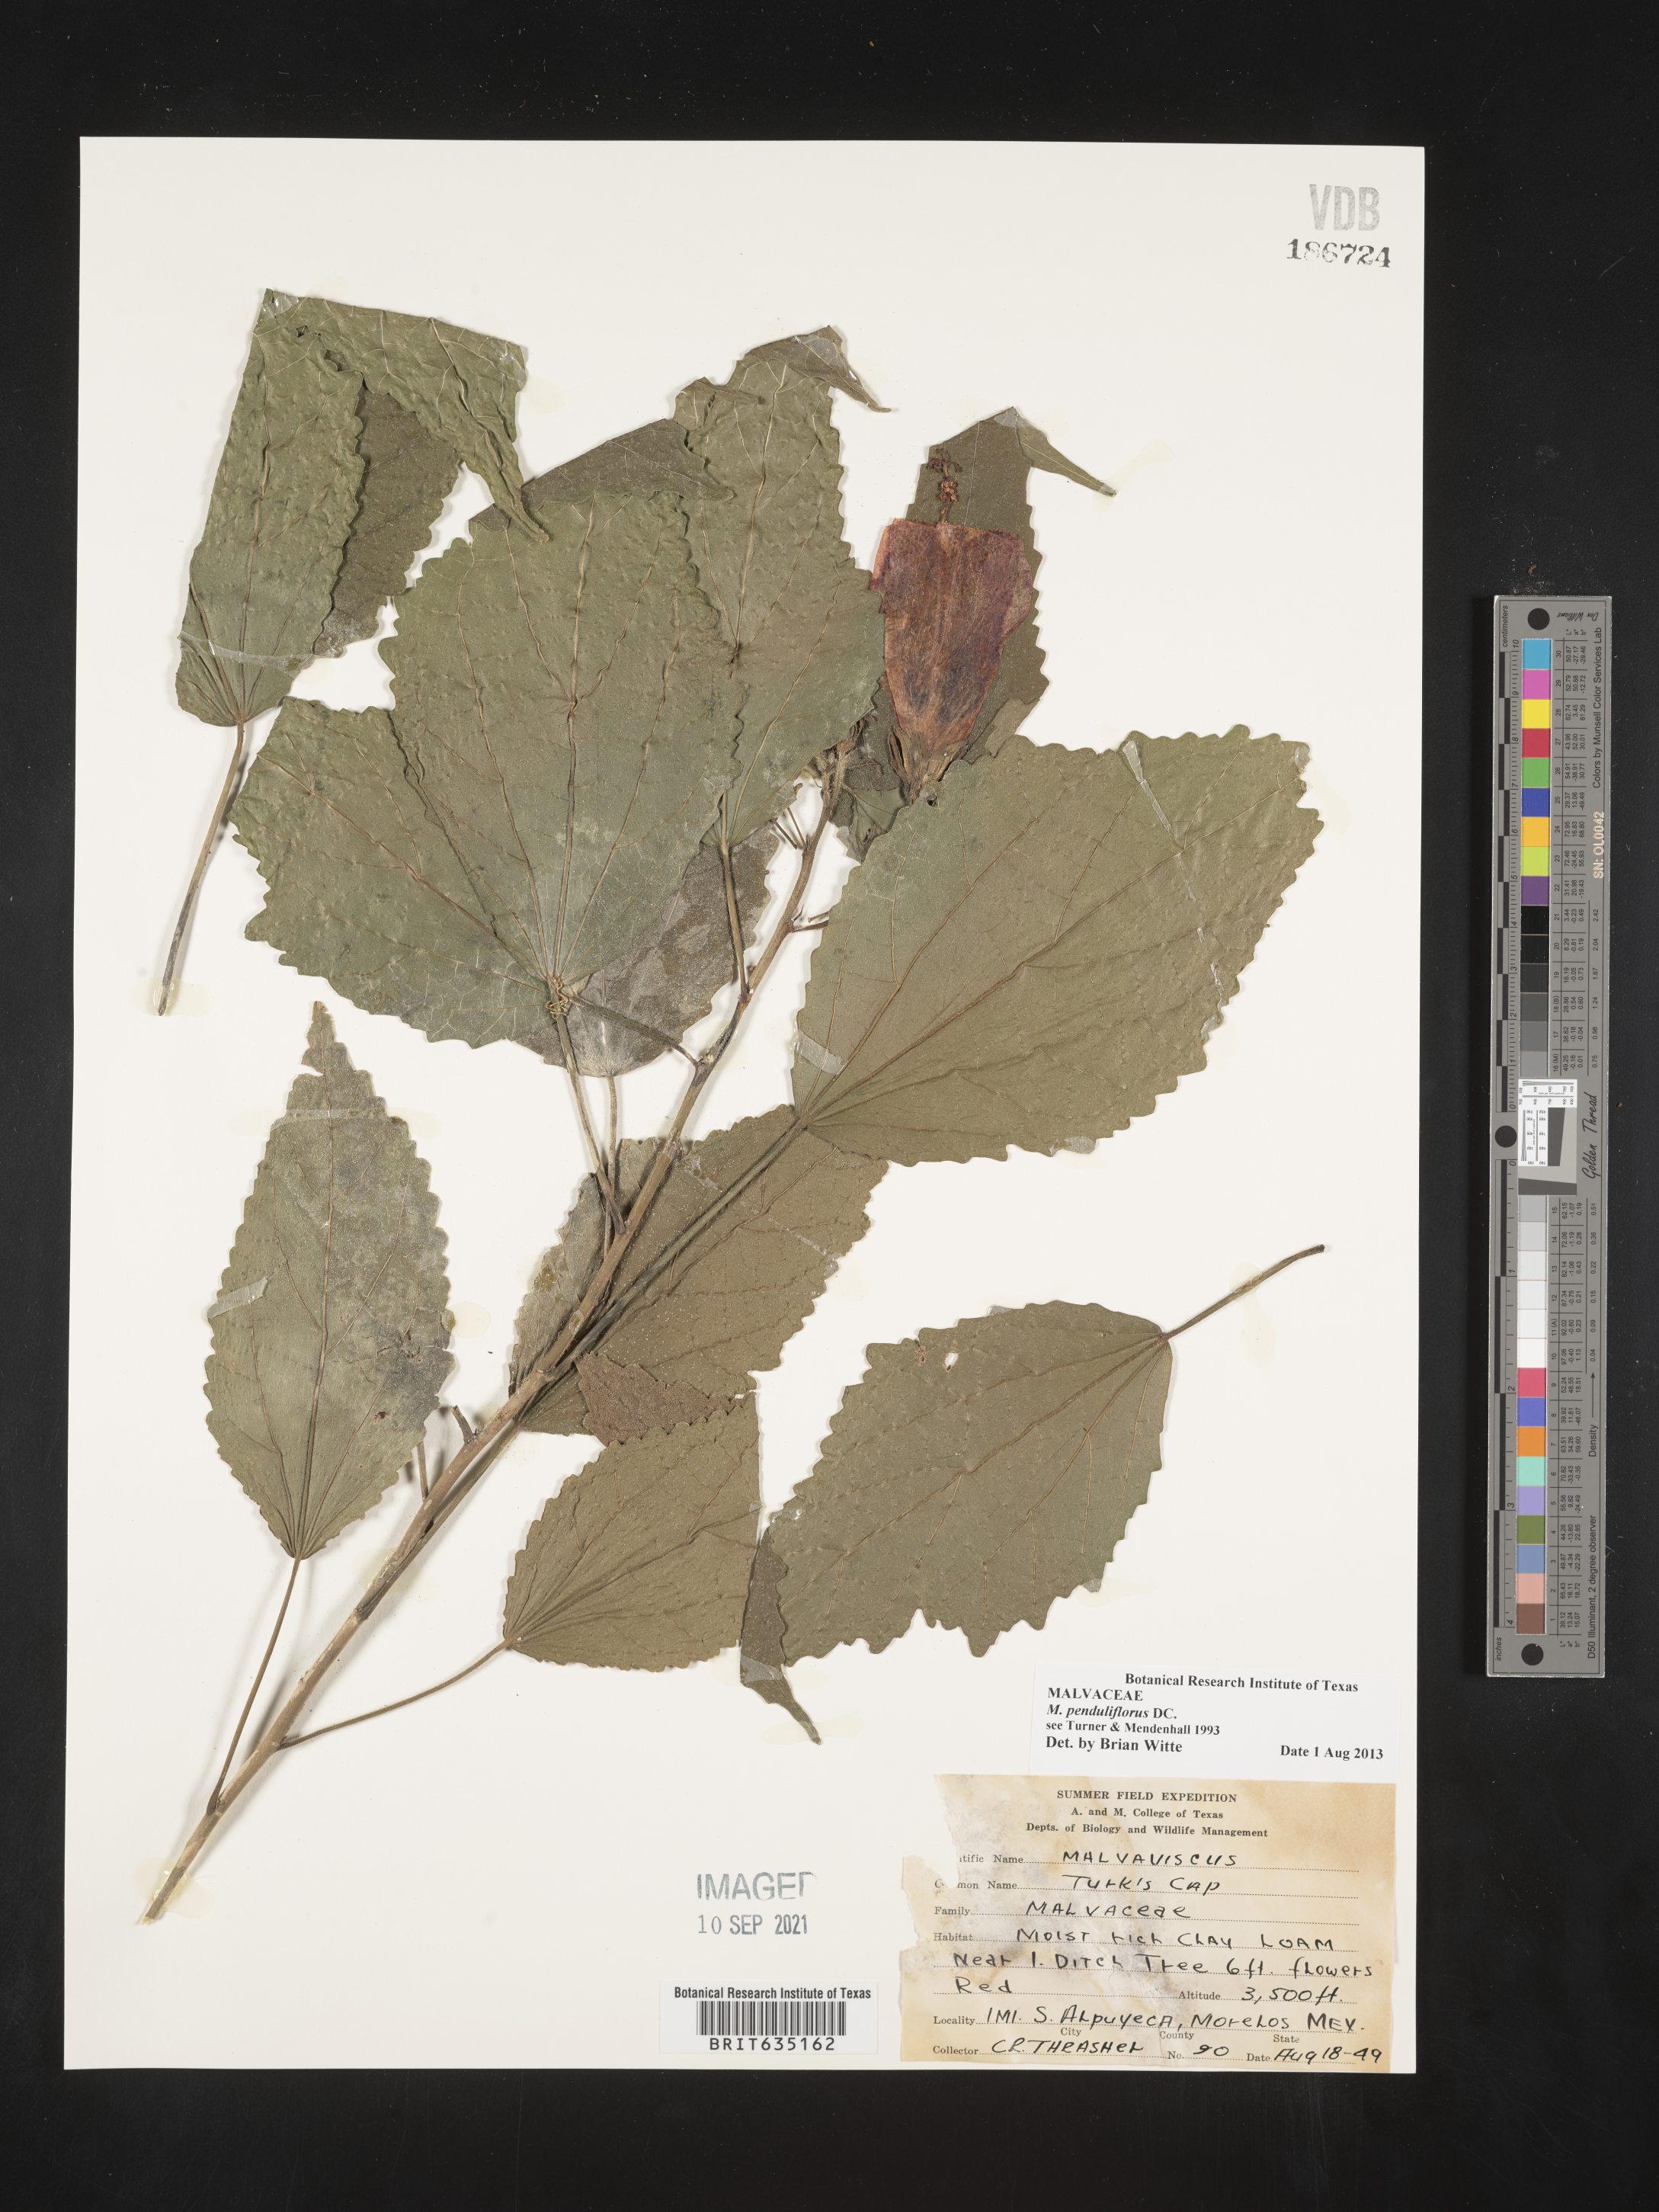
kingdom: Plantae
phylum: Tracheophyta
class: Magnoliopsida
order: Malvales
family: Malvaceae
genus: Malvaviscus
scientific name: Malvaviscus
